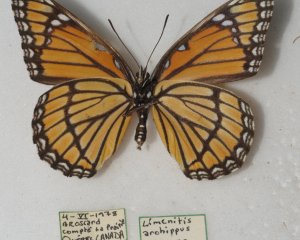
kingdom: Animalia
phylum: Arthropoda
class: Insecta
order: Lepidoptera
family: Nymphalidae
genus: Limenitis
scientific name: Limenitis archippus
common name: Viceroy
